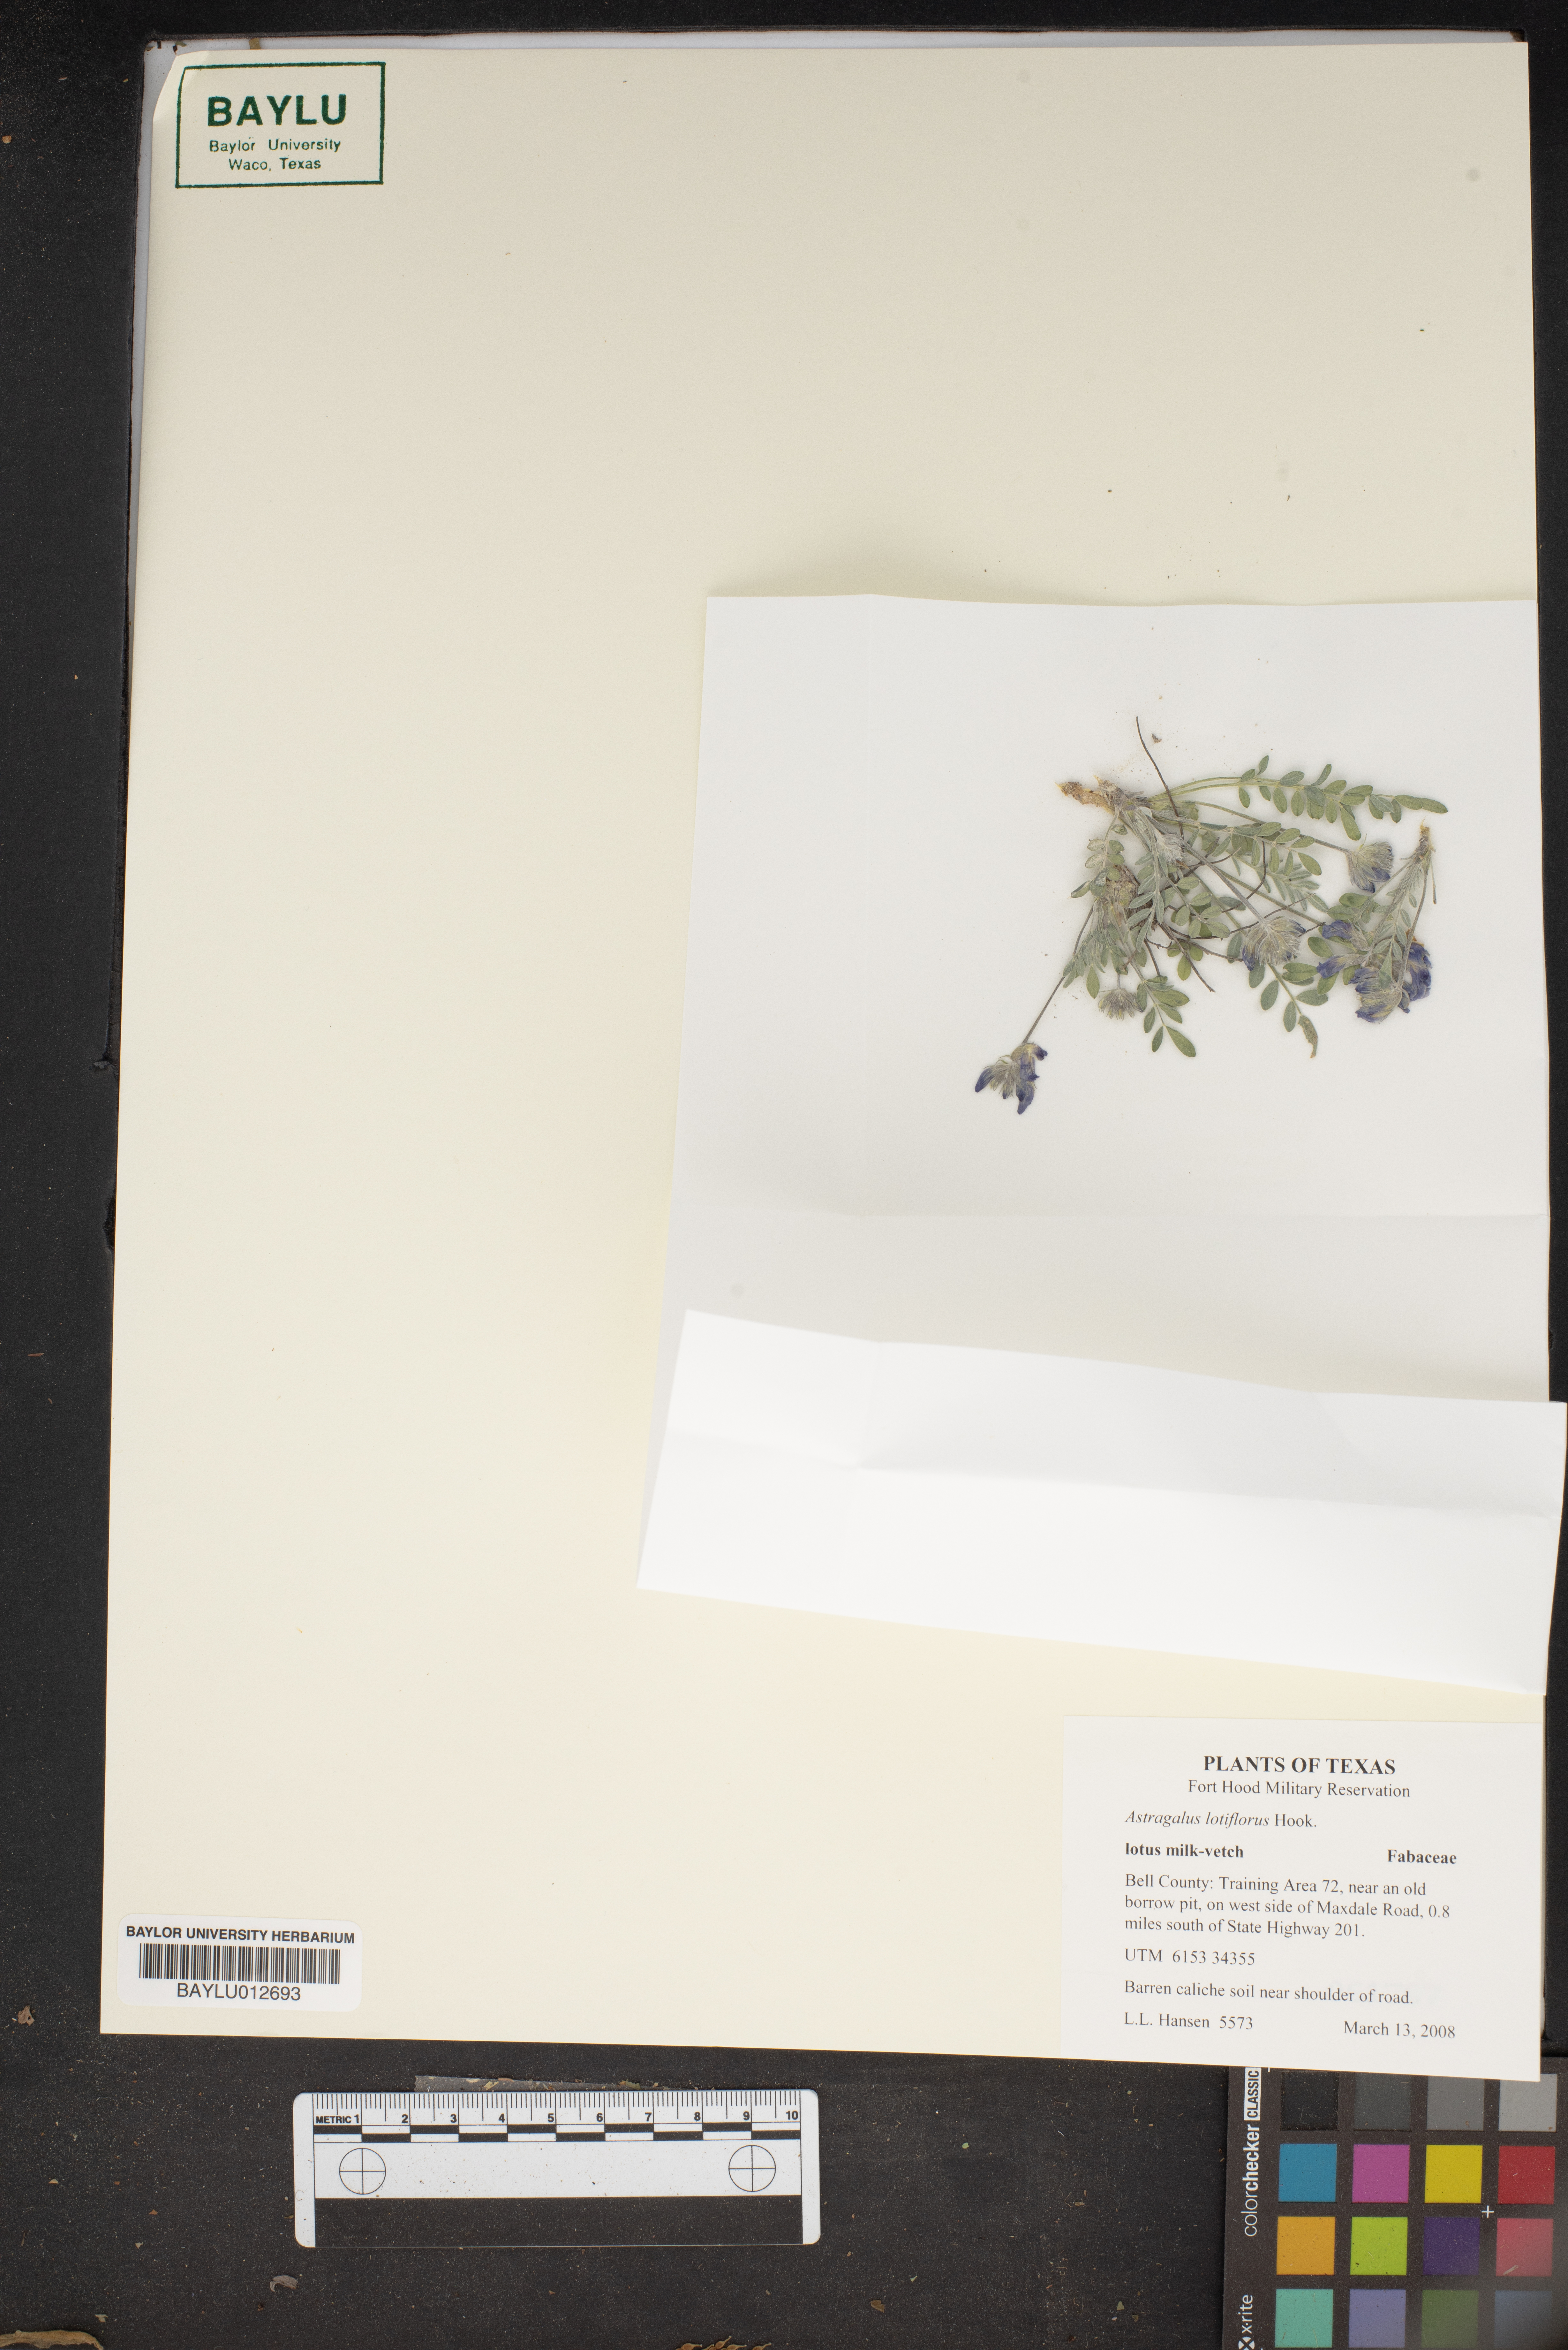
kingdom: Plantae
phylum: Tracheophyta
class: Magnoliopsida
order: Fabales
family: Fabaceae
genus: Astragalus
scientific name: Astragalus lotiflorus
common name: Lotus milk-vetch
